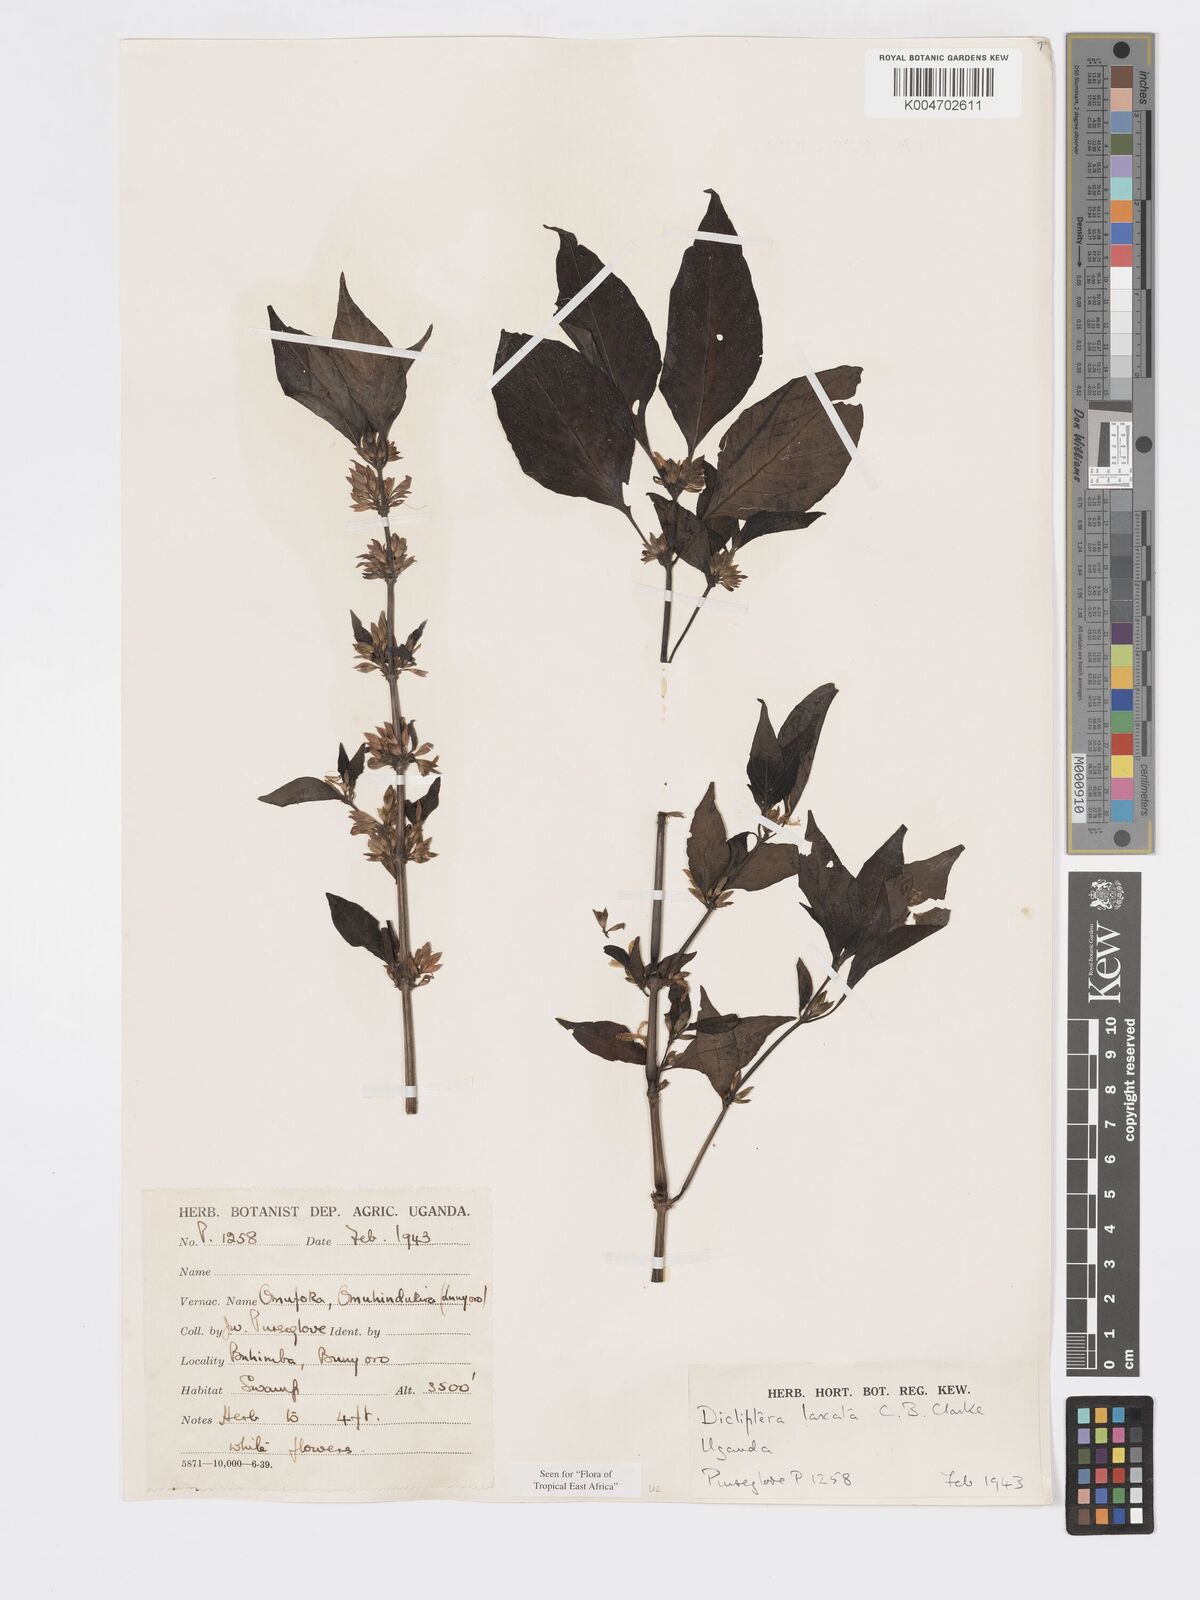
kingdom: Plantae
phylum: Tracheophyta
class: Magnoliopsida
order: Lamiales
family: Acanthaceae
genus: Dicliptera
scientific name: Dicliptera laxata
